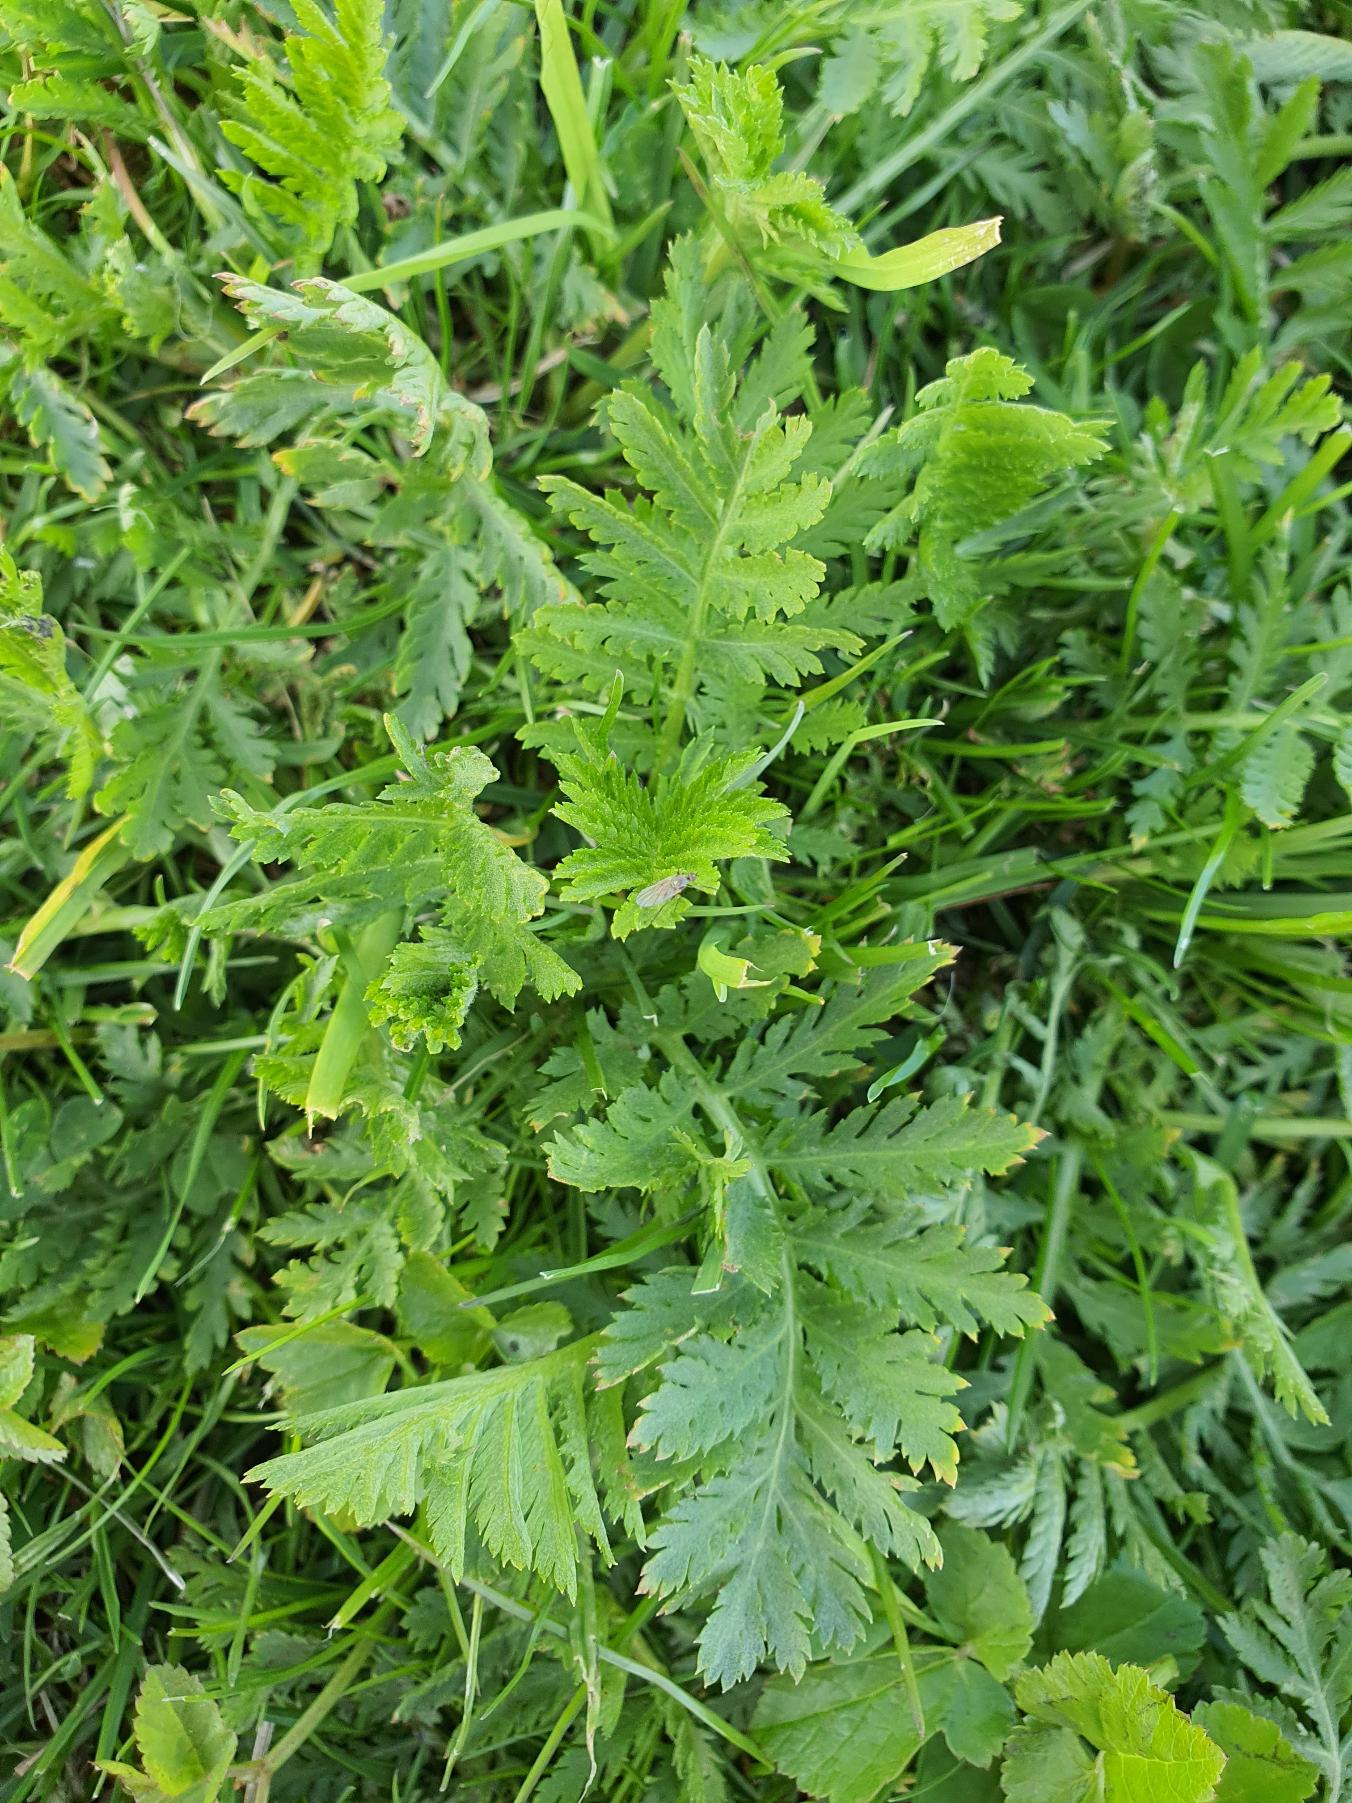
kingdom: Plantae
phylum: Tracheophyta
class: Magnoliopsida
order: Asterales
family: Asteraceae
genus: Tanacetum
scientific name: Tanacetum vulgare
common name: Rejnfan
